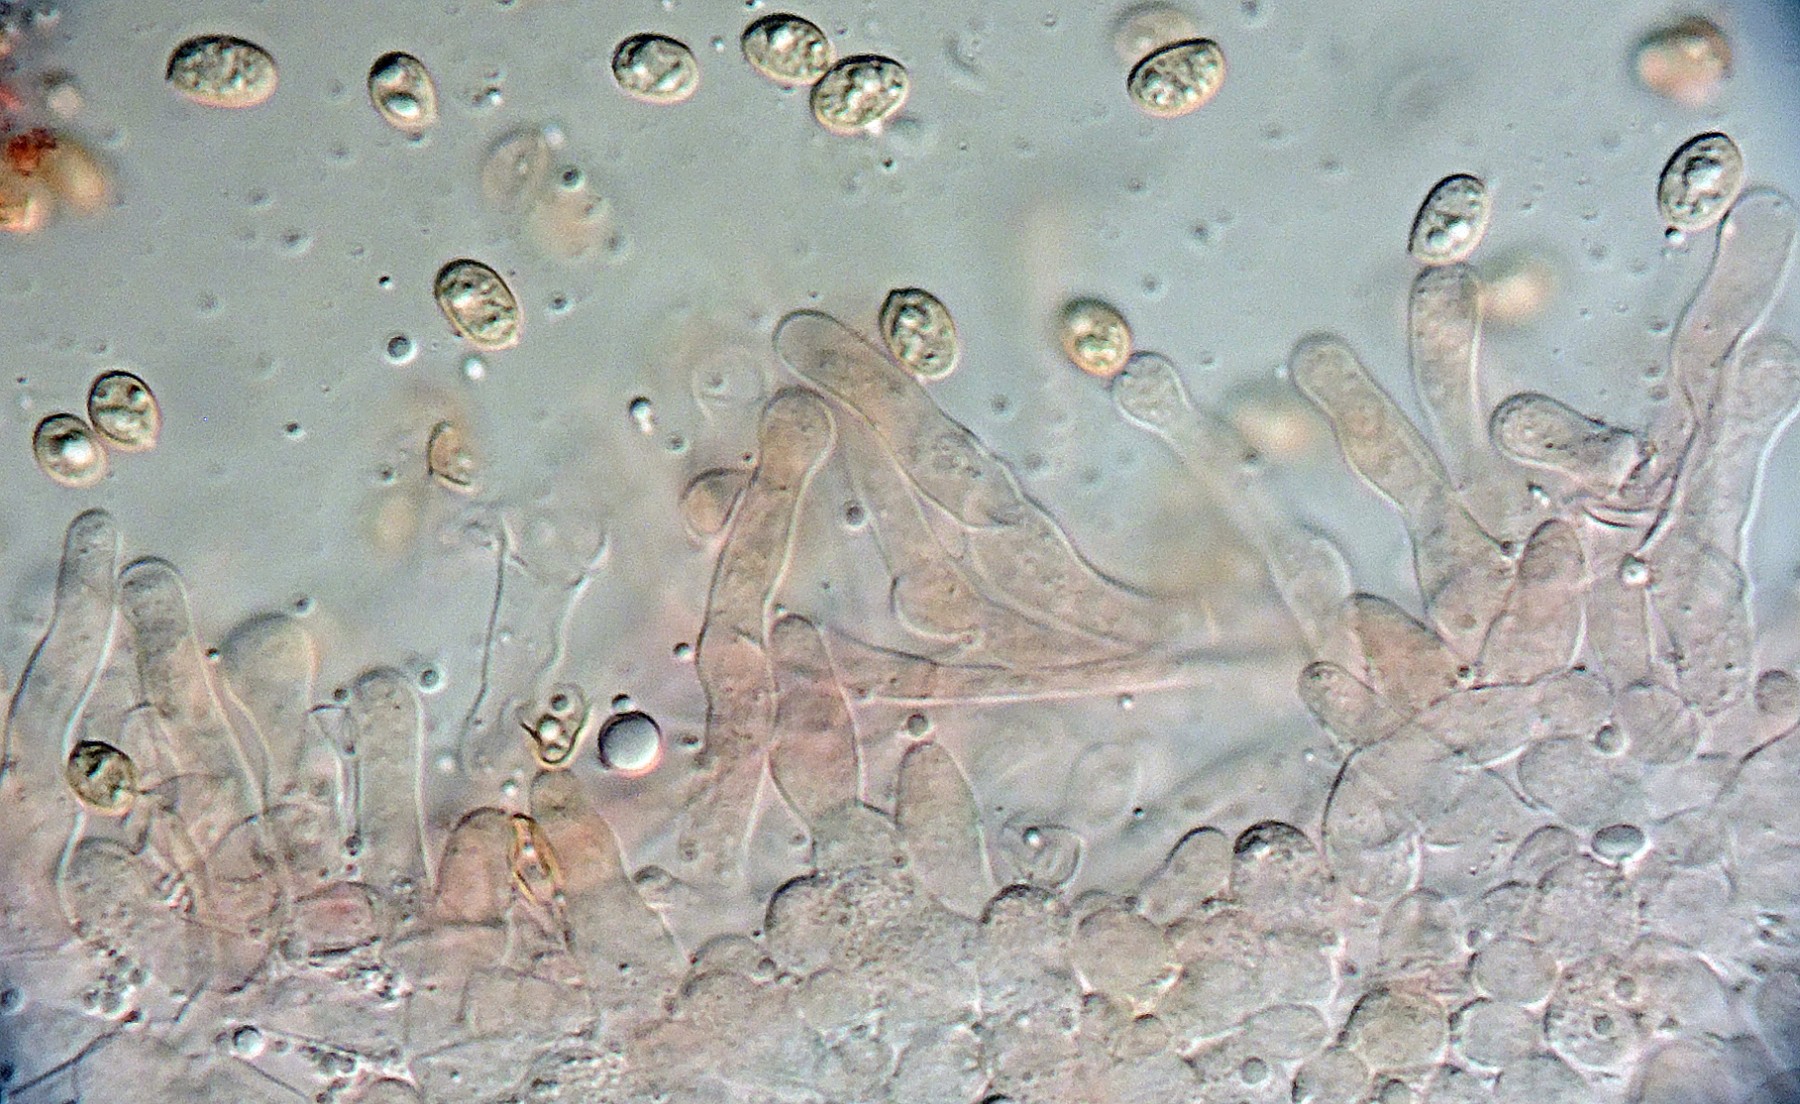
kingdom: Fungi
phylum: Basidiomycota
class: Agaricomycetes
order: Agaricales
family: Tubariaceae
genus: Tubaria
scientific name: Tubaria furfuracea
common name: kliddet fnughat
